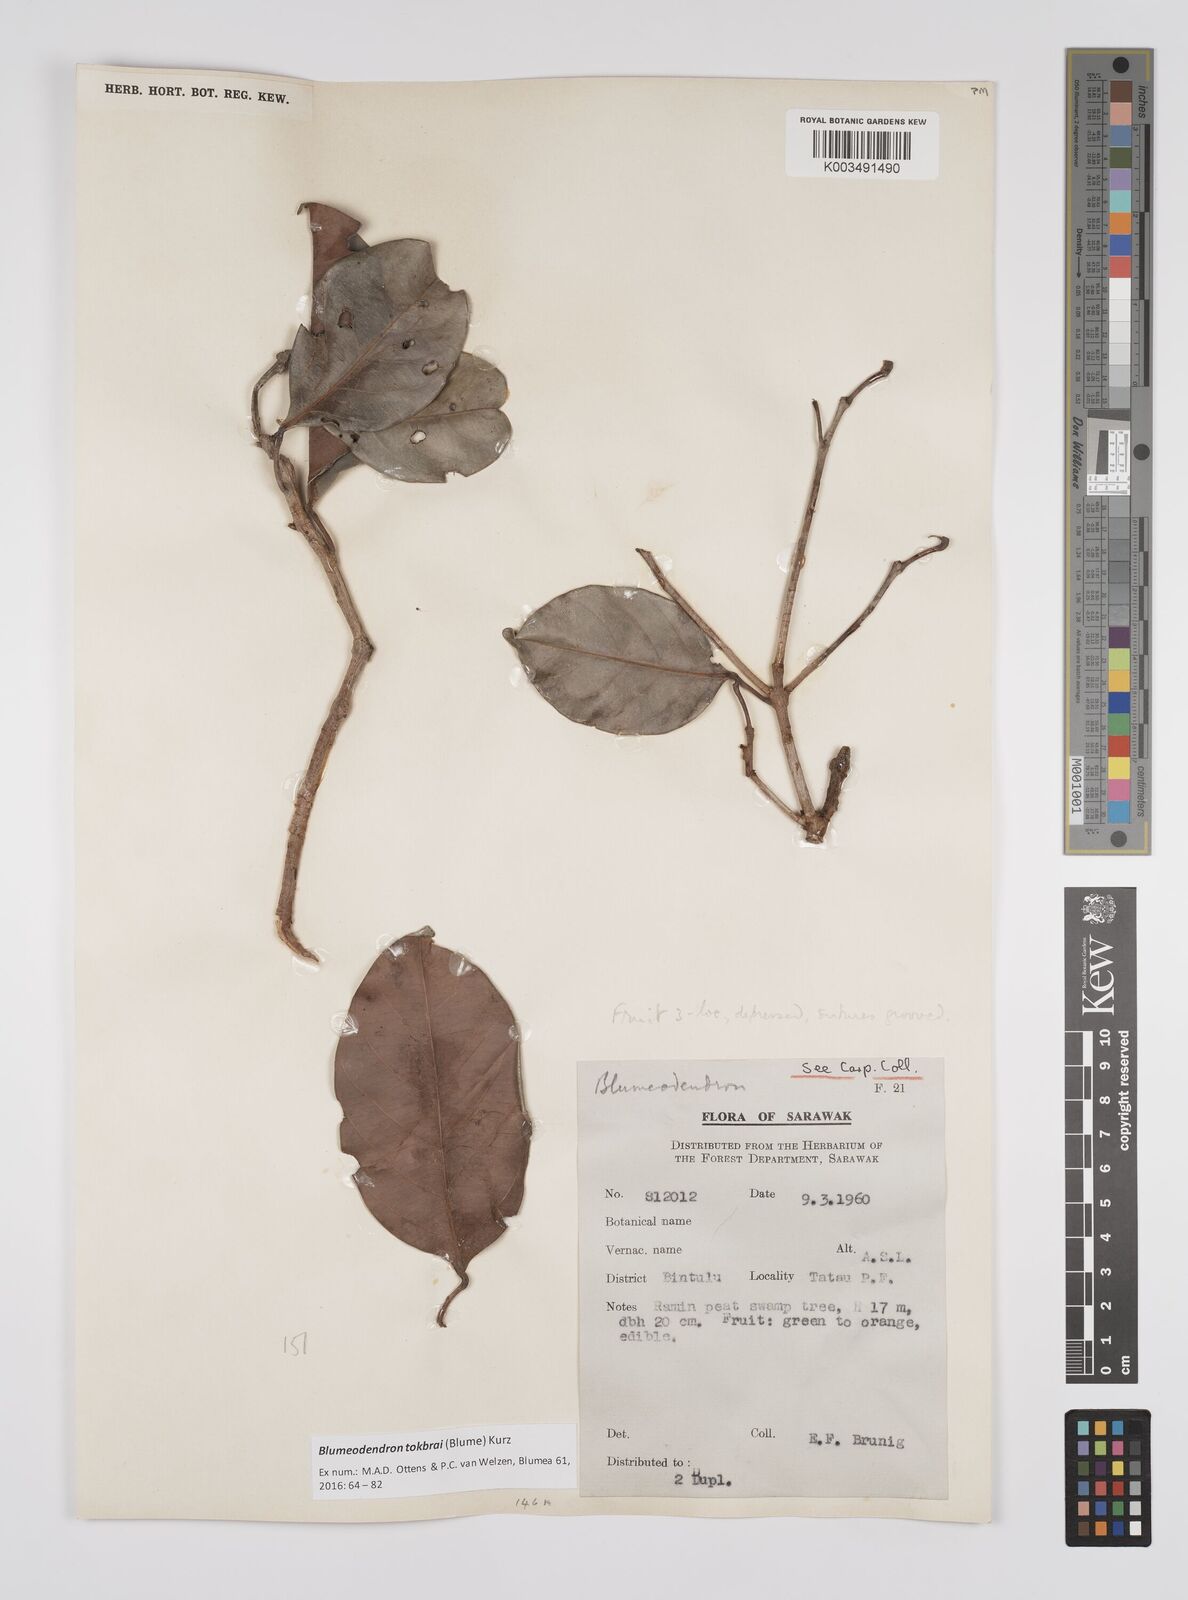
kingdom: Plantae
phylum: Tracheophyta
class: Magnoliopsida
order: Malpighiales
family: Euphorbiaceae
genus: Blumeodendron
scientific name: Blumeodendron tokbrai
